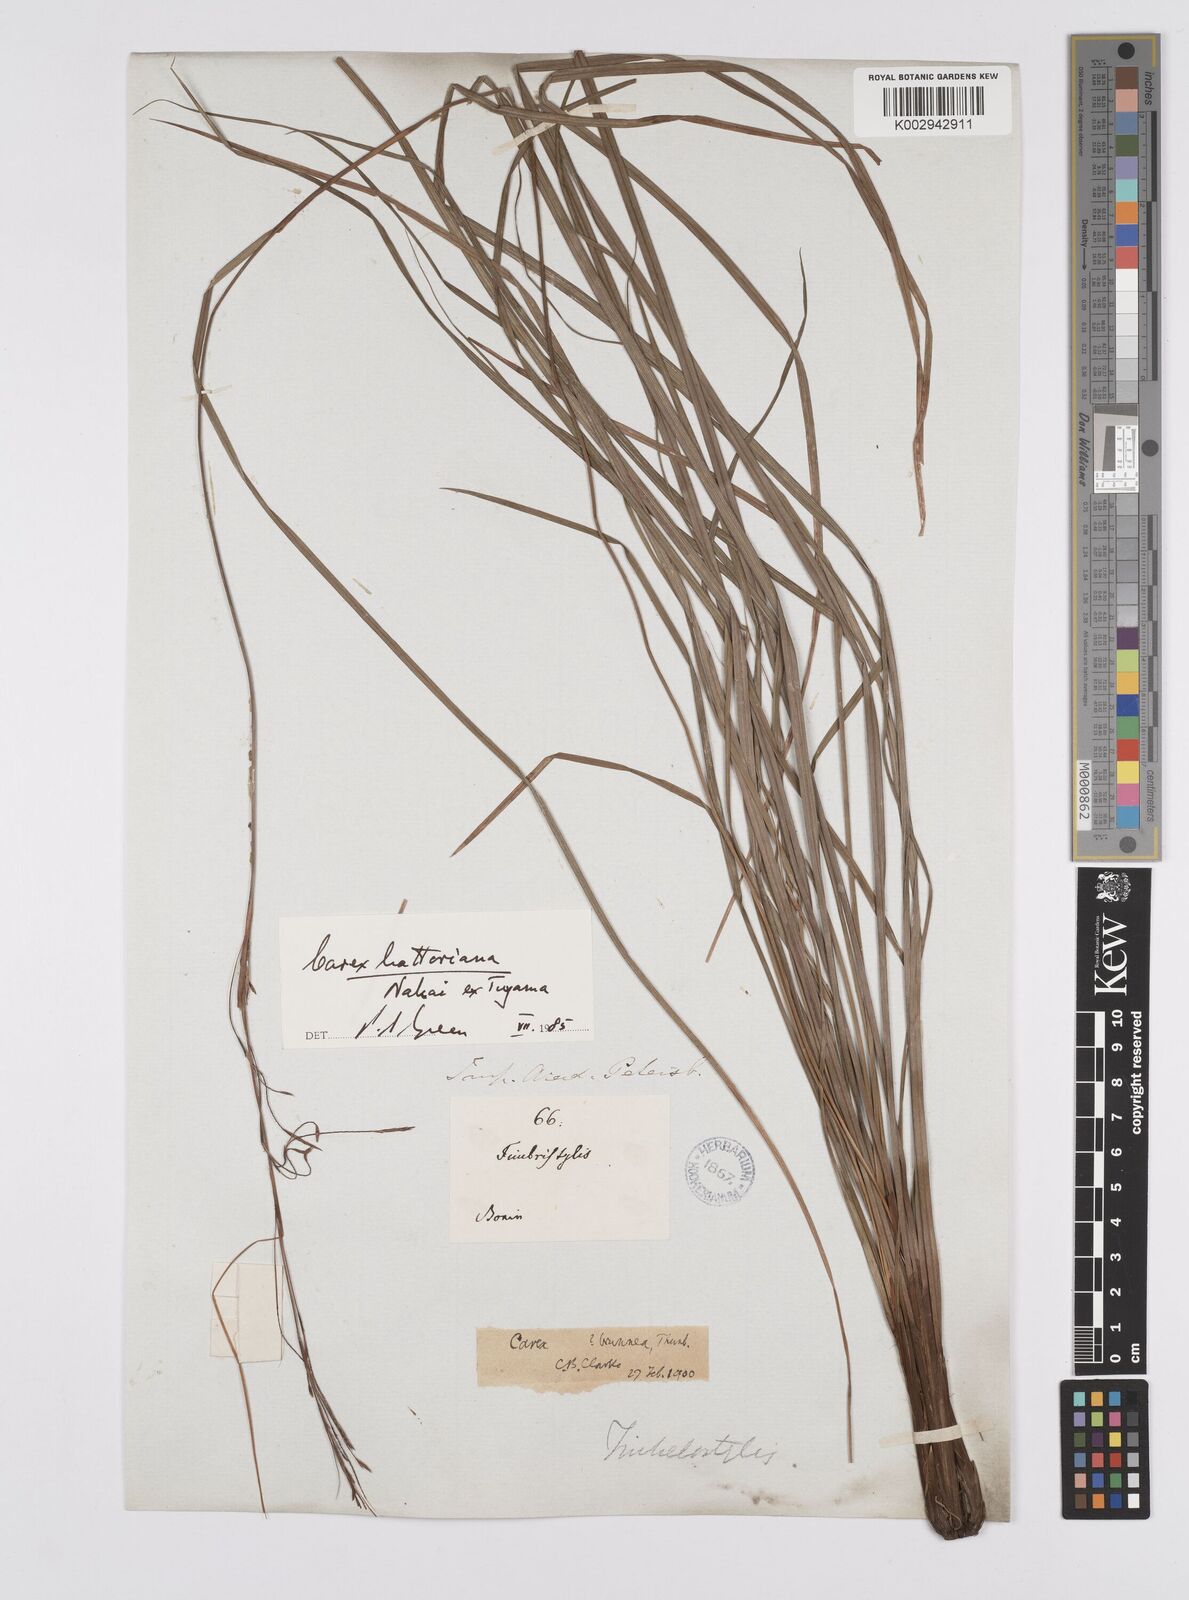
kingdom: Plantae
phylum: Tracheophyta
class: Liliopsida
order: Poales
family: Cyperaceae
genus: Carex
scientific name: Carex hattoriana
